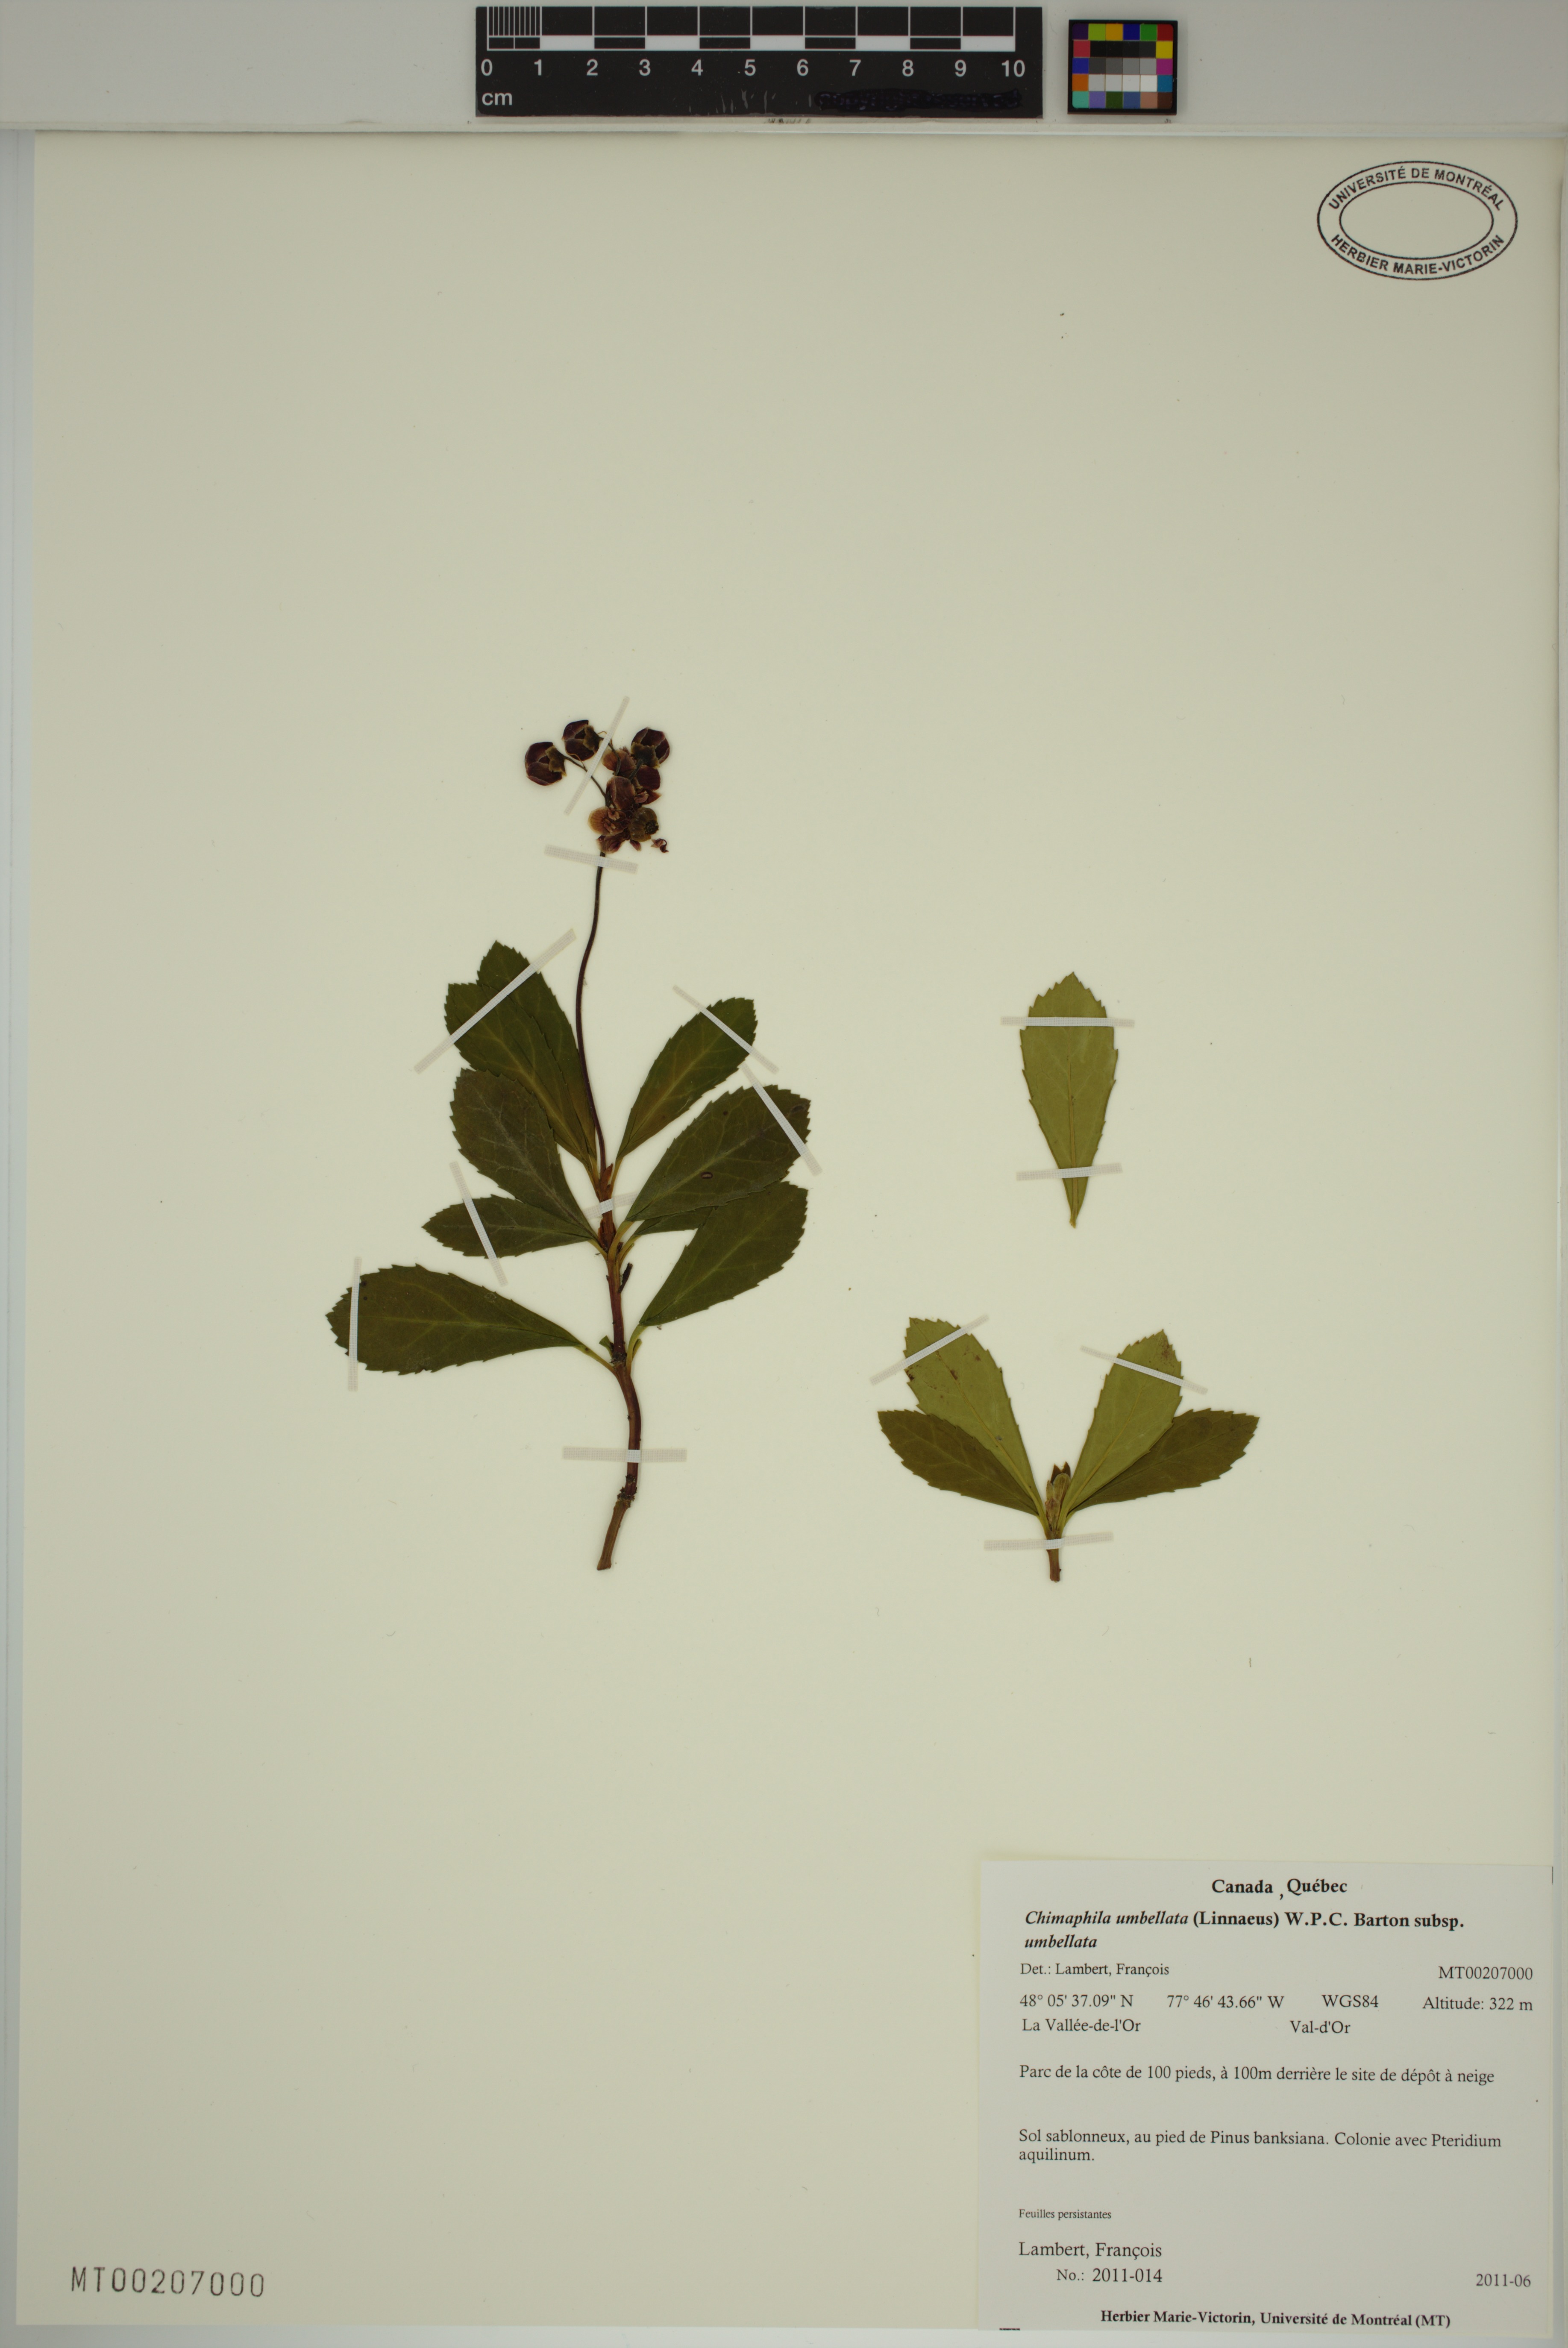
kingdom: Plantae
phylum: Tracheophyta
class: Magnoliopsida
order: Ericales
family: Ericaceae
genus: Chimaphila
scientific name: Chimaphila umbellata
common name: Pipsissewa
